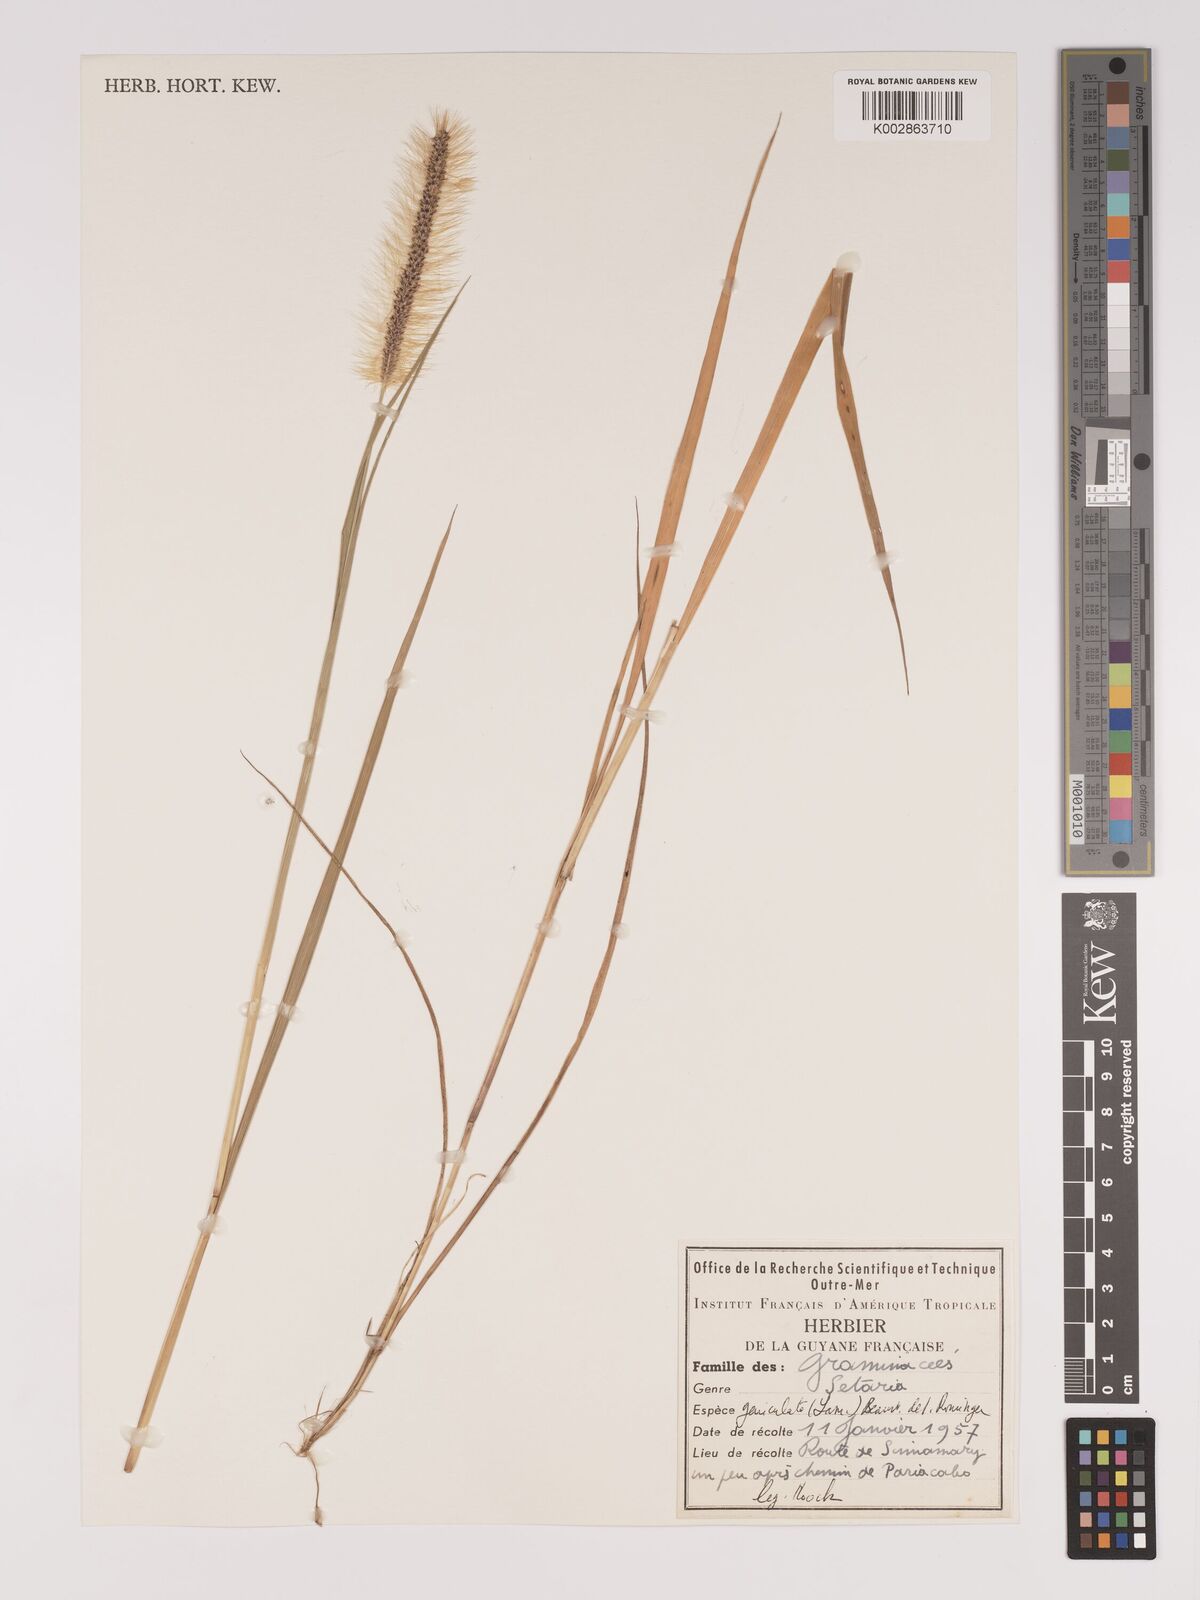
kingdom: Plantae
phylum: Tracheophyta
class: Liliopsida
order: Poales
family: Poaceae
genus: Setaria
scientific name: Setaria parviflora
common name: Knotroot bristle-grass
